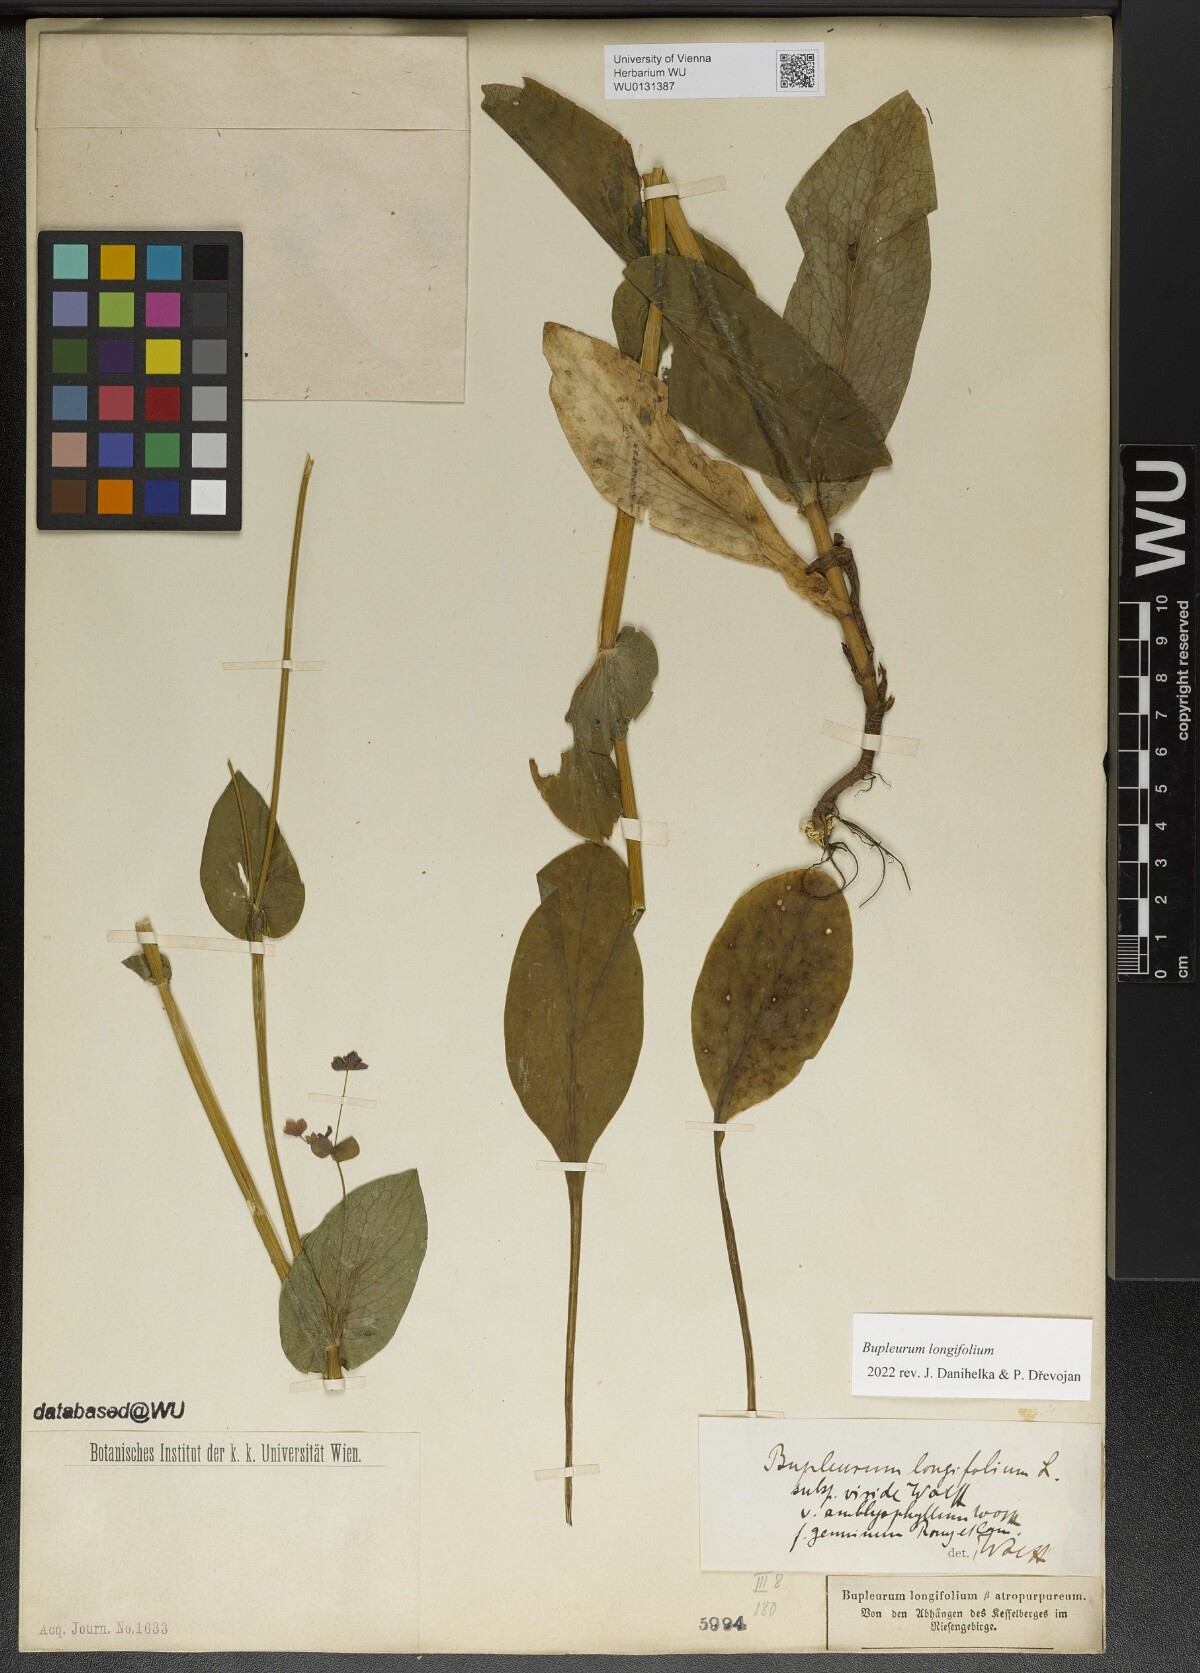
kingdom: Plantae
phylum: Tracheophyta
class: Magnoliopsida
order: Apiales
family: Apiaceae
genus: Bupleurum
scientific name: Bupleurum longifolium
